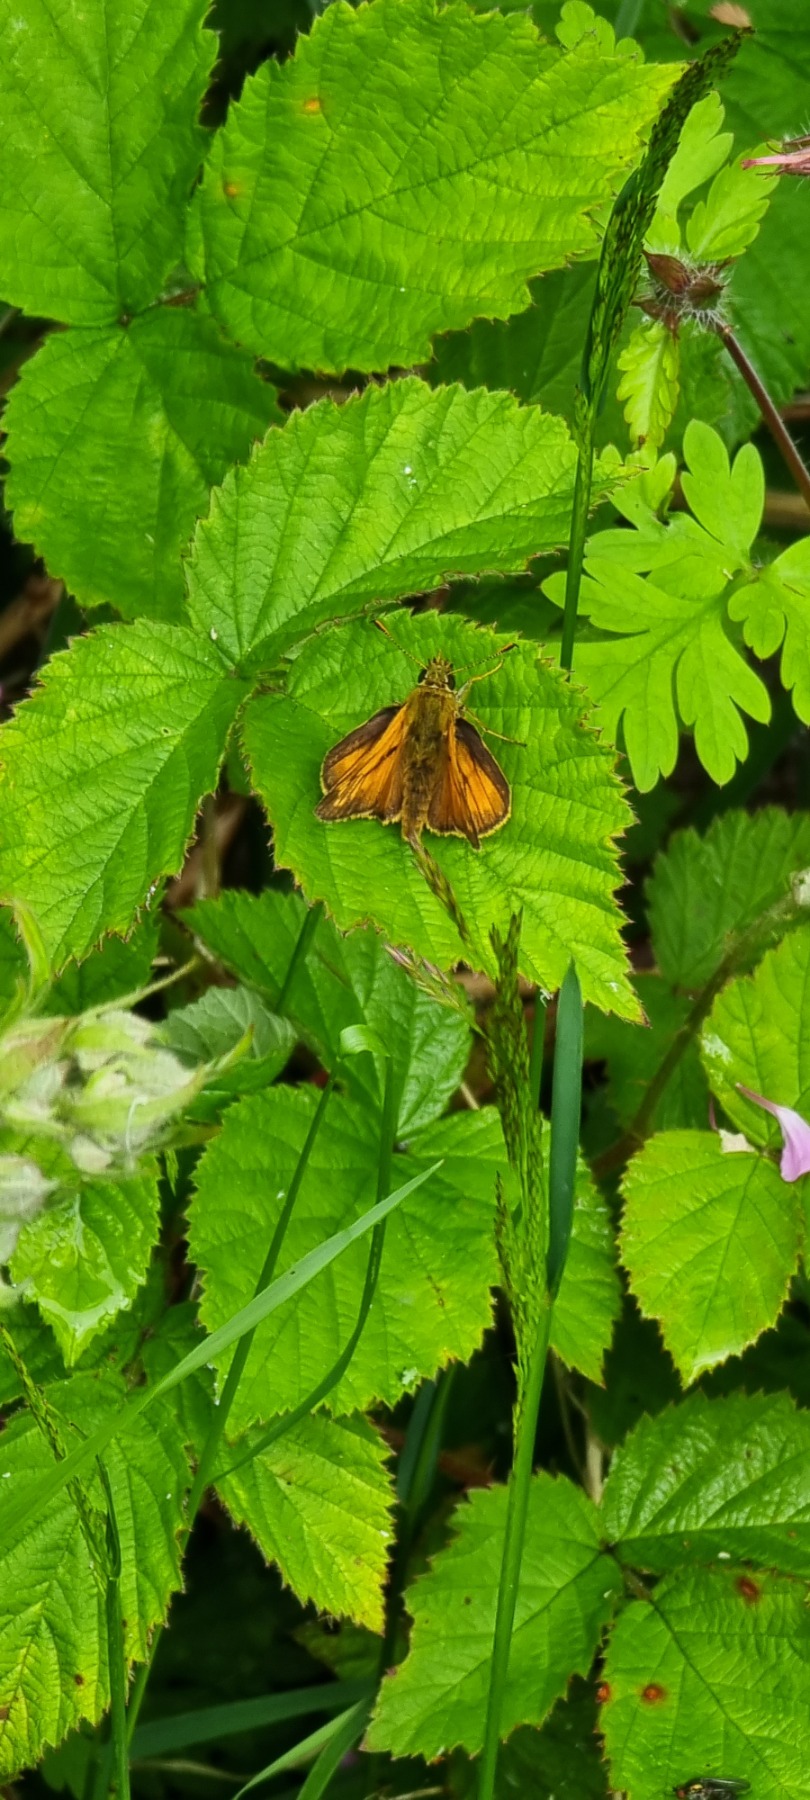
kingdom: Animalia
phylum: Arthropoda
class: Insecta
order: Lepidoptera
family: Hesperiidae
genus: Ochlodes
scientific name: Ochlodes venata
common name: Stor bredpande
